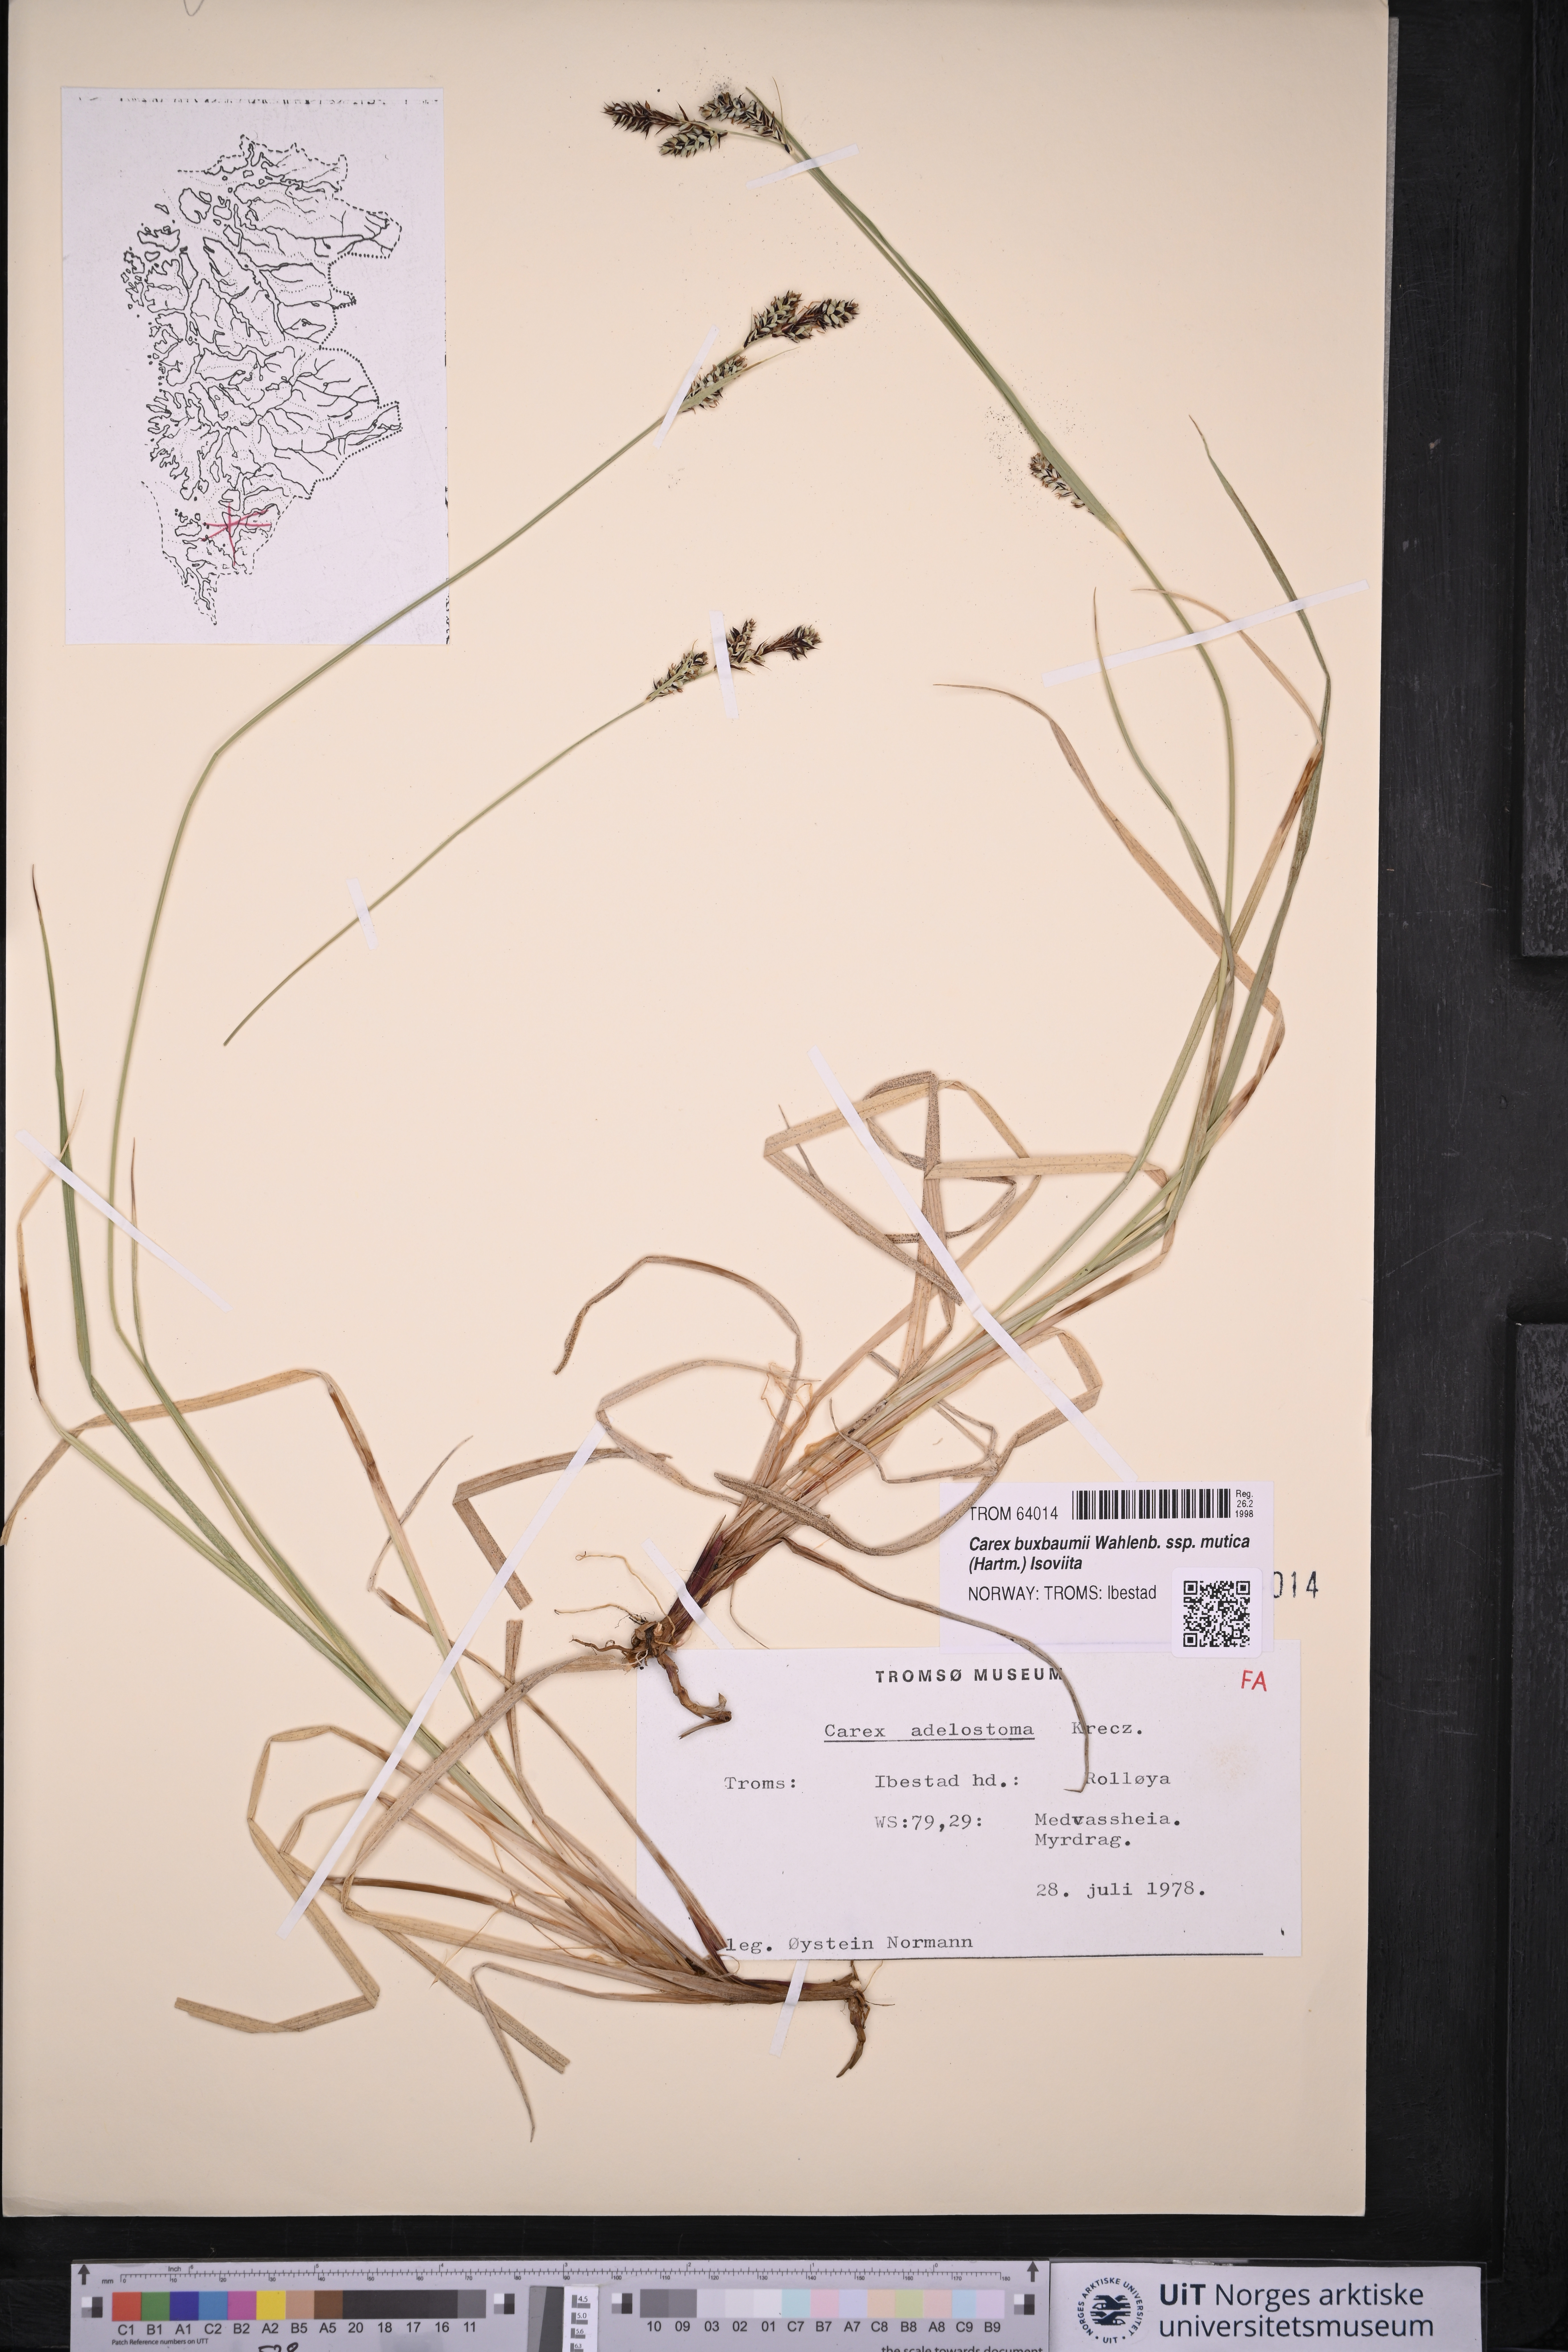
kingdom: Plantae
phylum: Tracheophyta
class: Liliopsida
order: Poales
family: Cyperaceae
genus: Carex
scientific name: Carex adelostoma
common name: Circumpolar sedge
